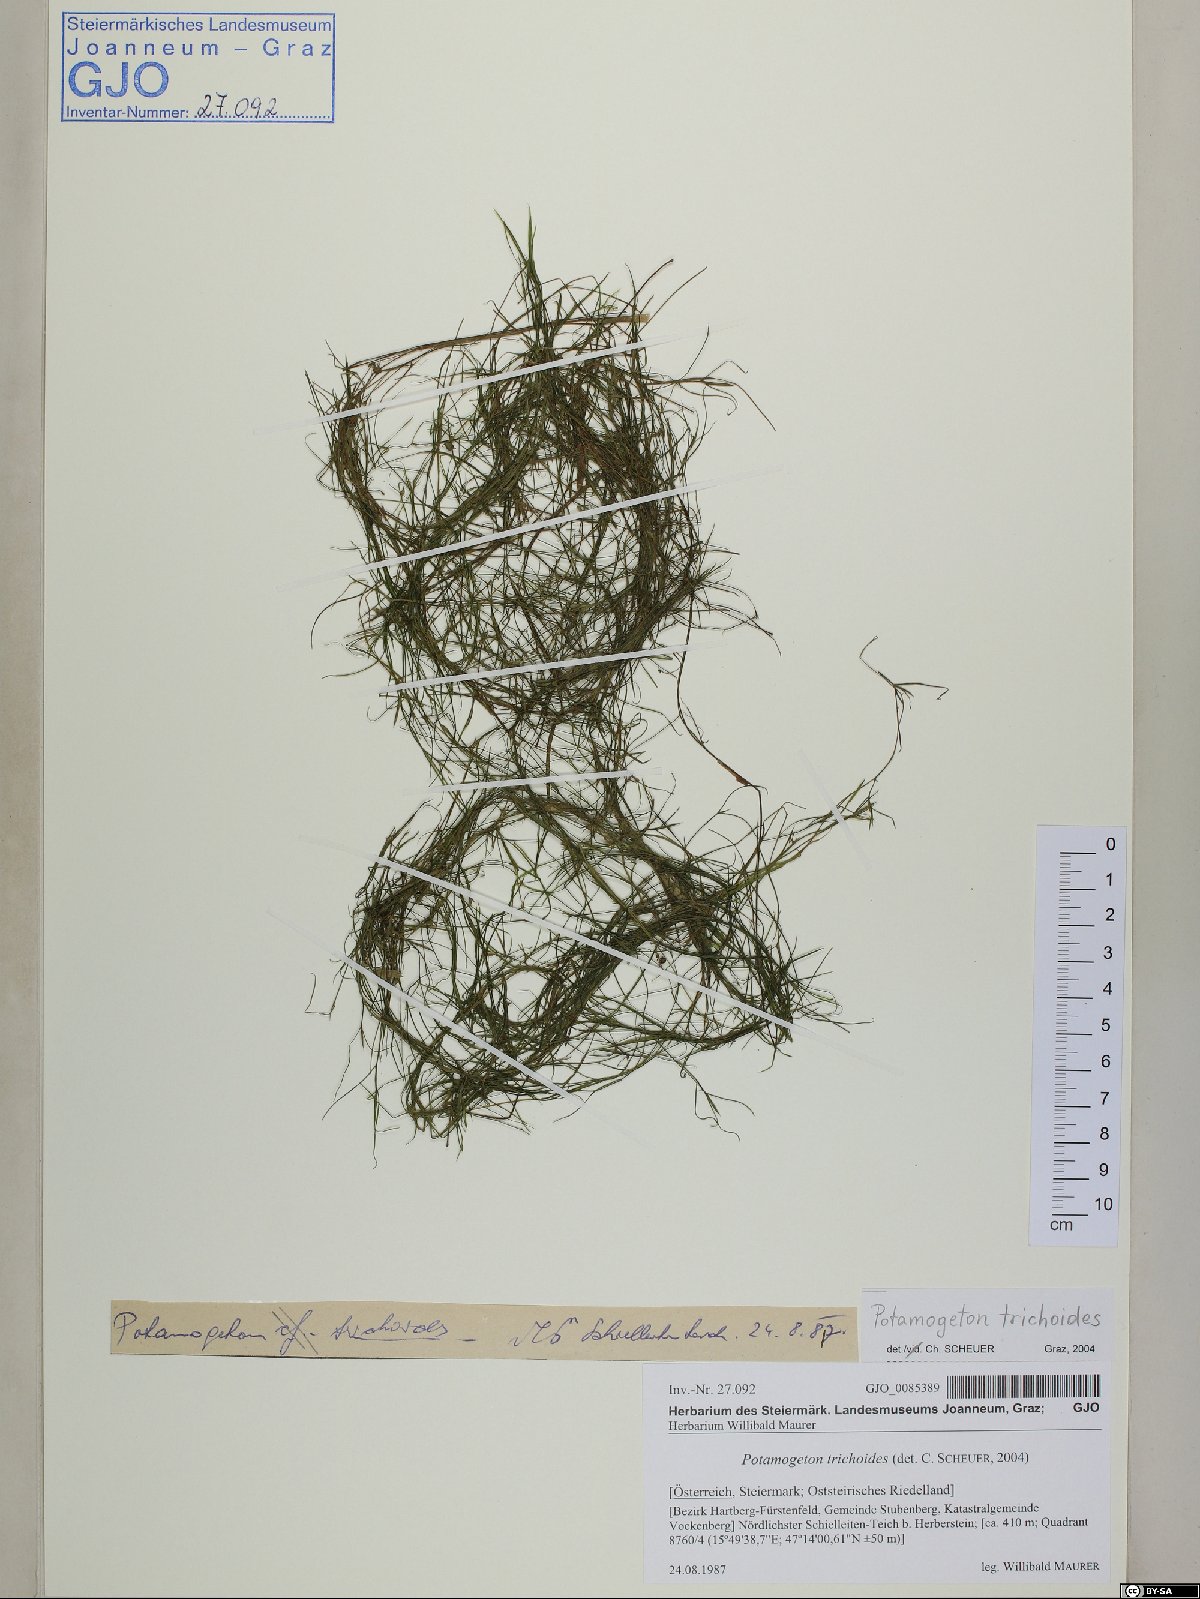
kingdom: Plantae
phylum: Tracheophyta
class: Liliopsida
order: Alismatales
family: Potamogetonaceae
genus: Potamogeton
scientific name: Potamogeton trichoides
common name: Hairlike pondweed
